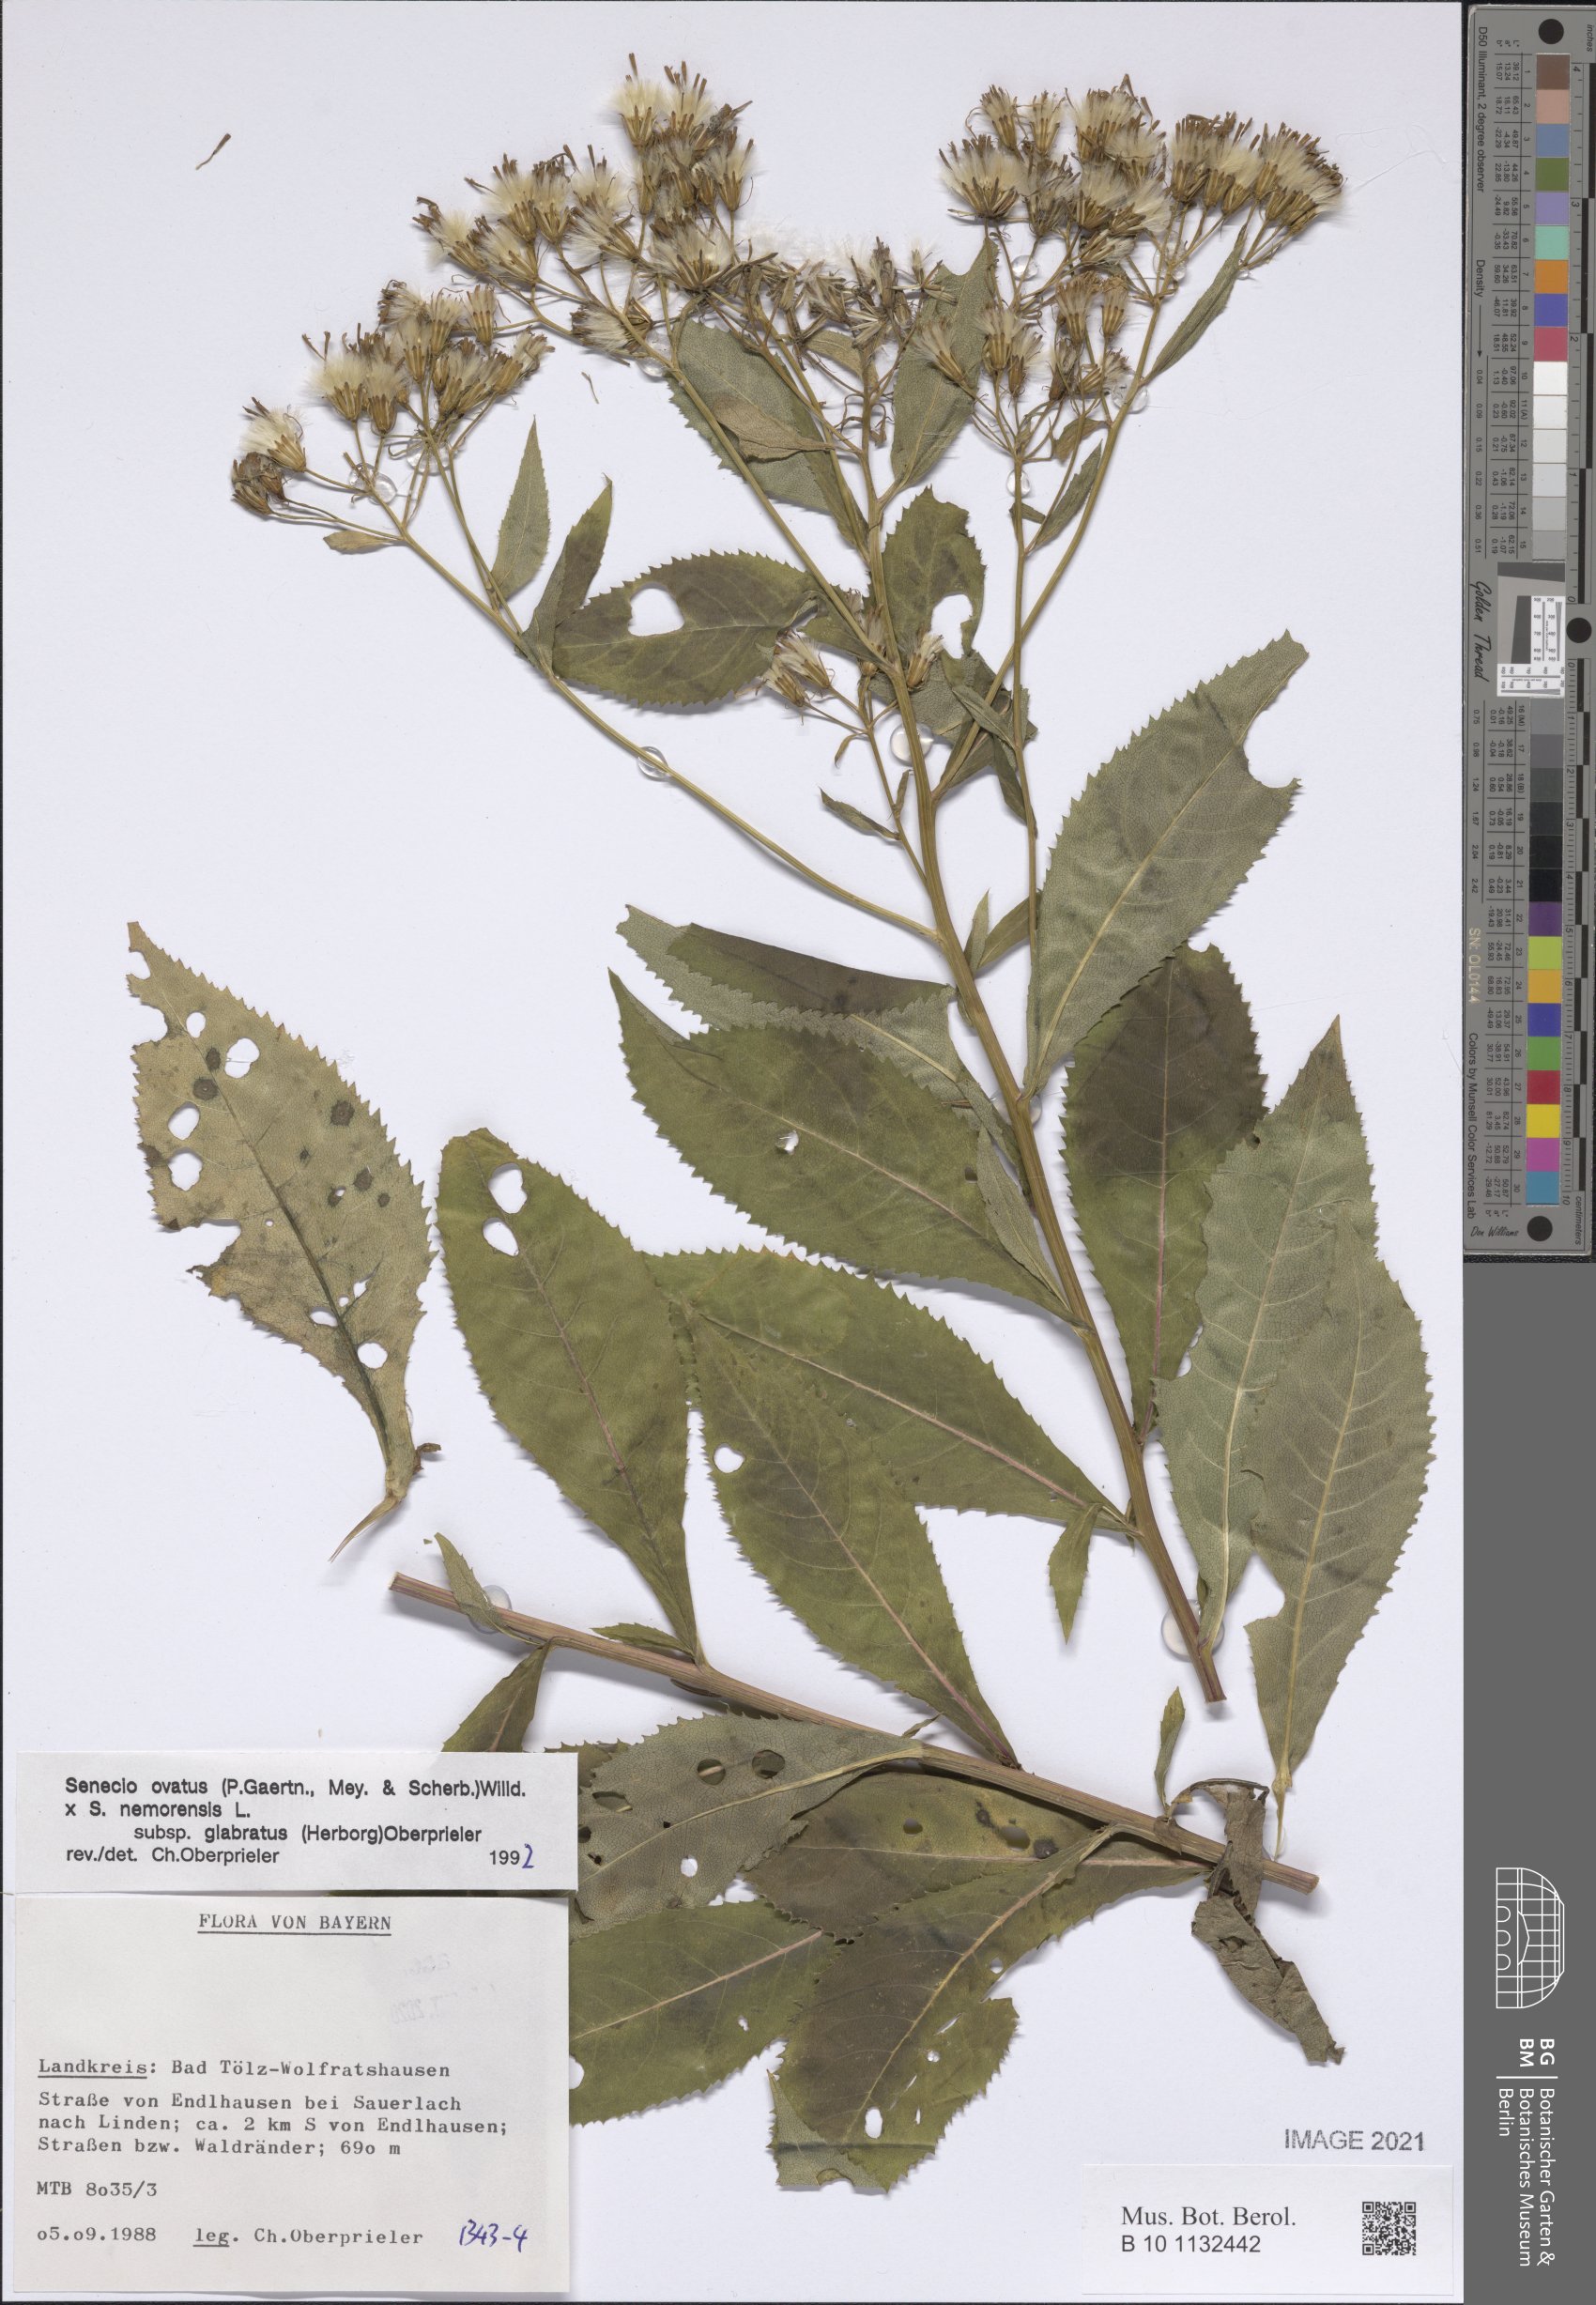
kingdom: Plantae
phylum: Tracheophyta
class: Magnoliopsida
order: Asterales
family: Asteraceae
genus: Senecio
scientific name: Senecio ovatus
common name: Wood ragwort
